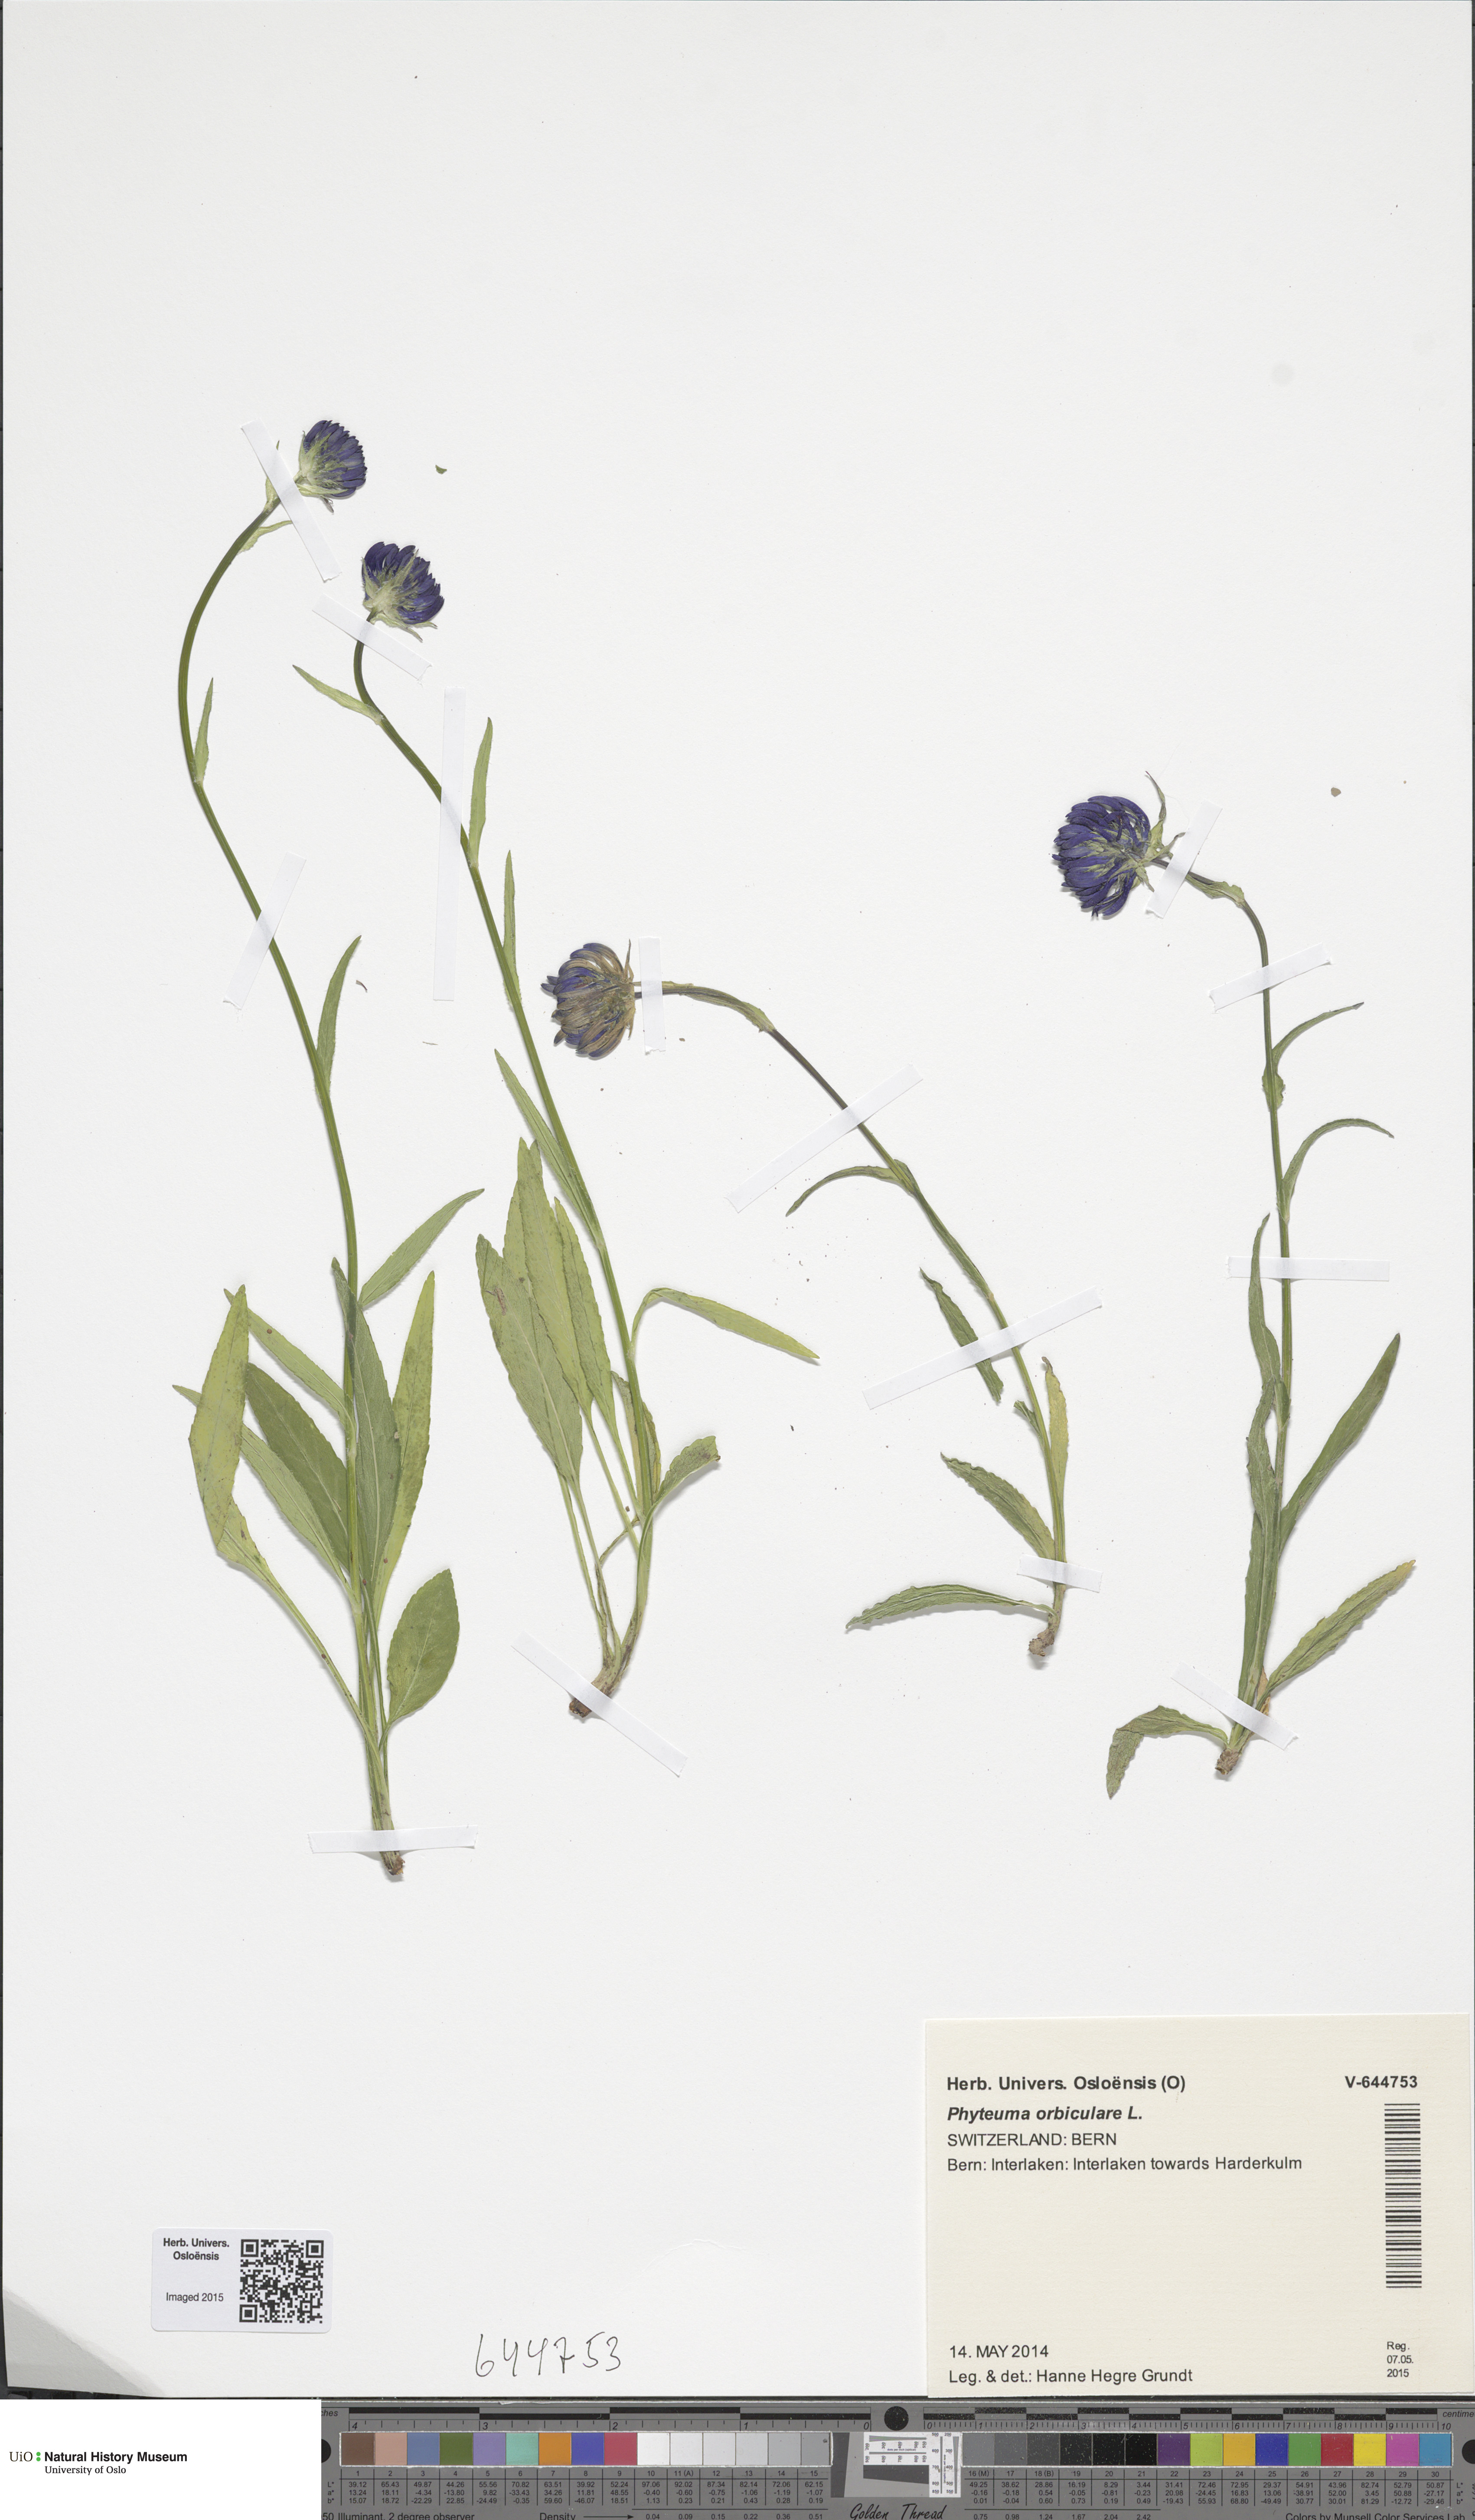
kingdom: Plantae
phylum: Tracheophyta
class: Magnoliopsida
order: Asterales
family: Campanulaceae
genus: Phyteuma
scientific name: Phyteuma orbiculare
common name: Round-headed rampion
